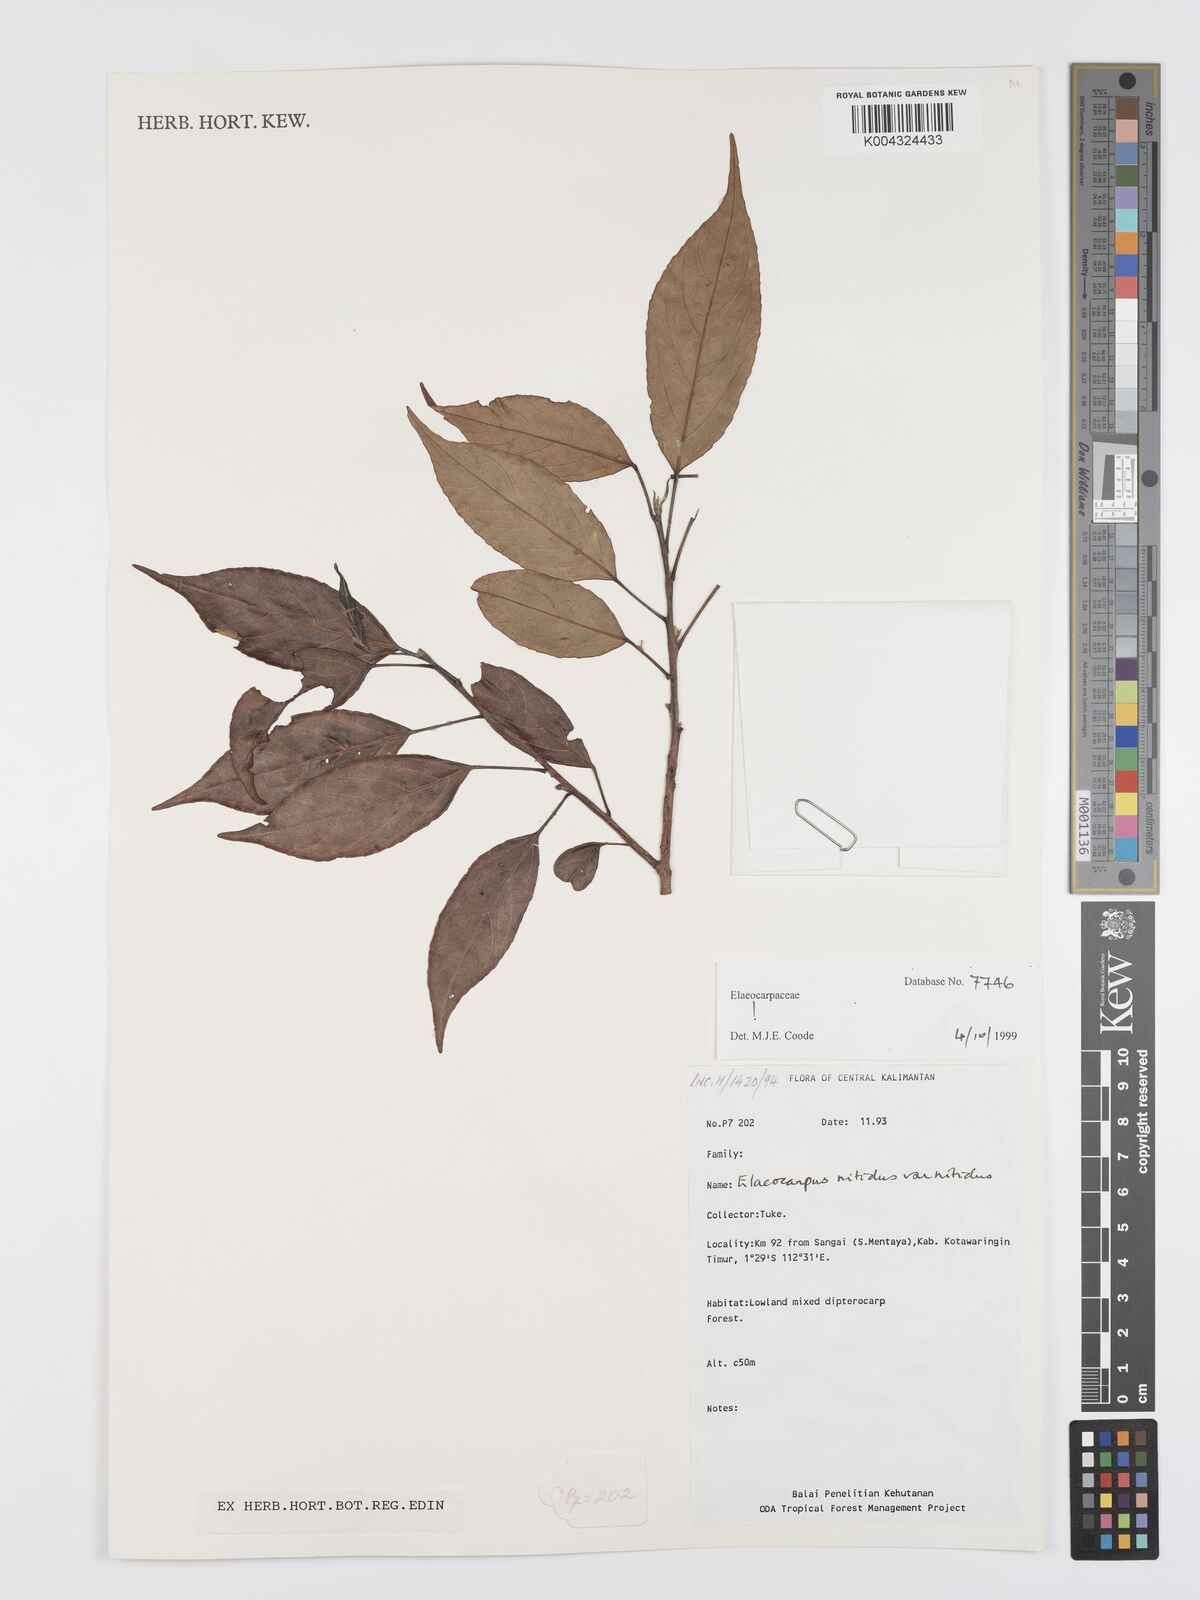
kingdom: Plantae
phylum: Tracheophyta
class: Magnoliopsida
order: Oxalidales
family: Elaeocarpaceae
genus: Elaeocarpus
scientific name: Elaeocarpus nitidus
